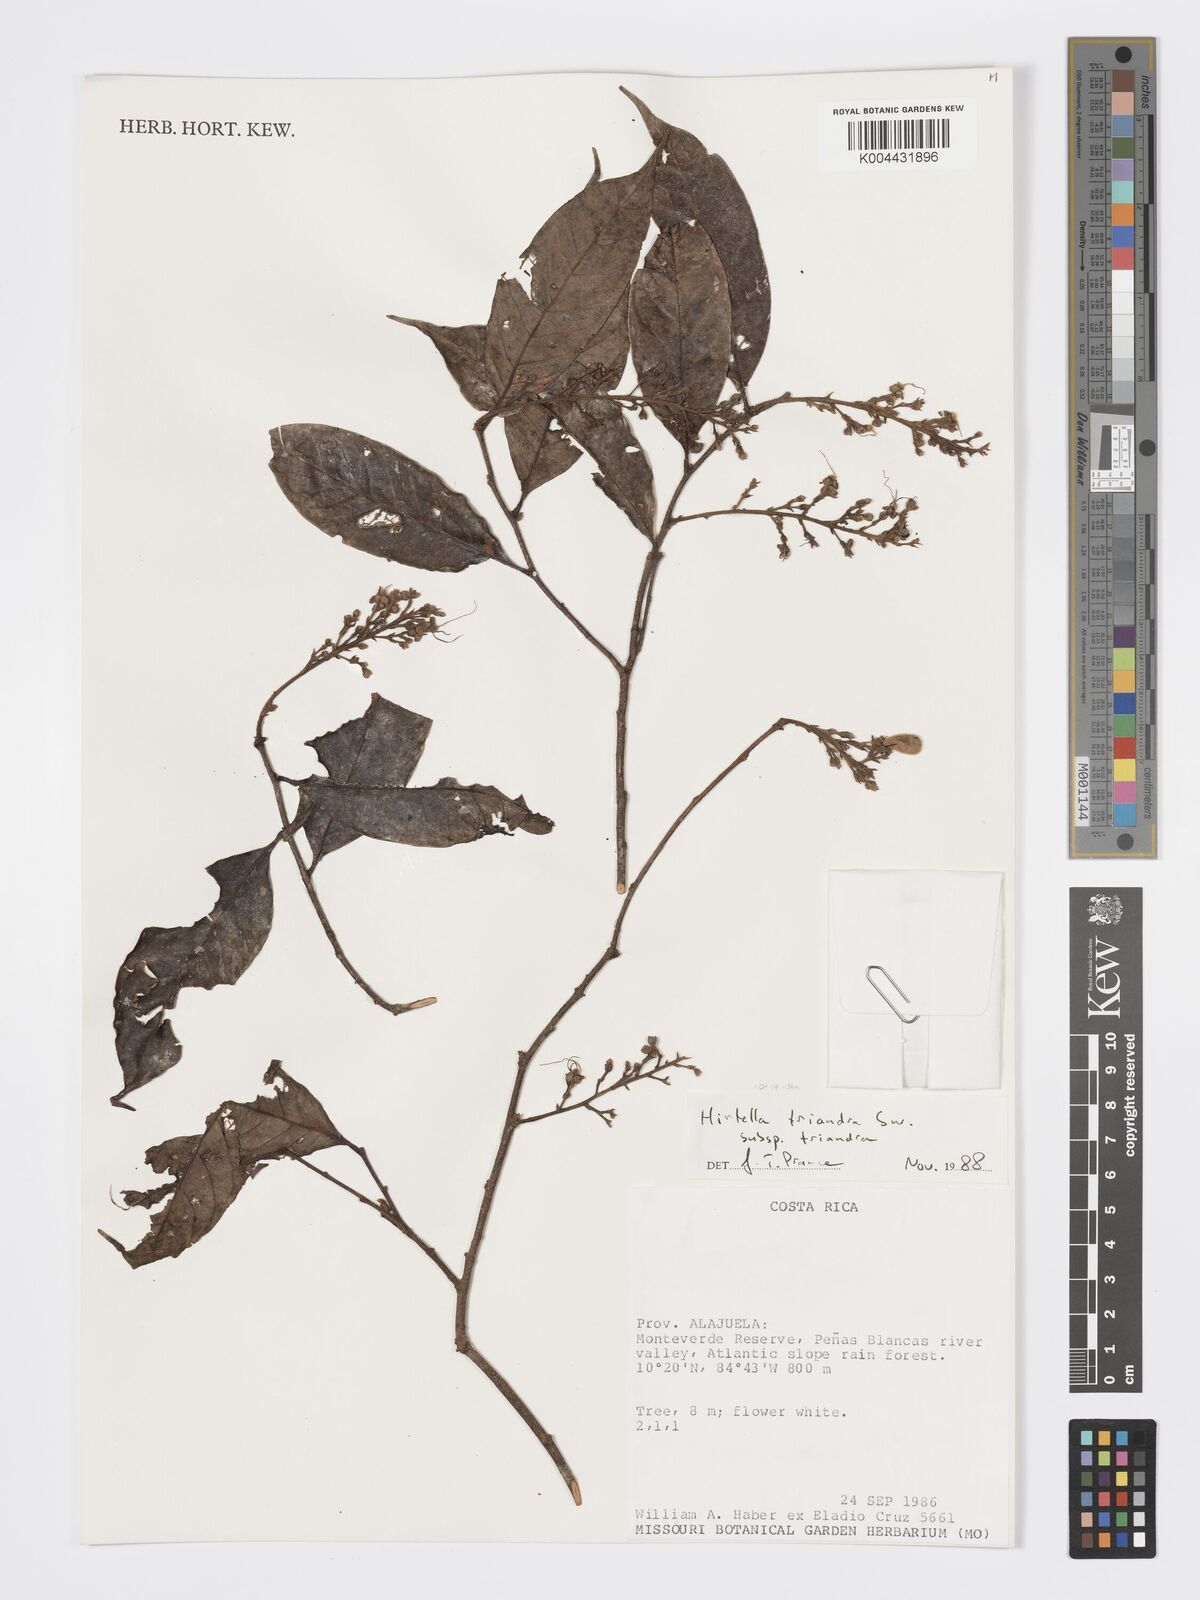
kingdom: Plantae
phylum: Tracheophyta
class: Magnoliopsida
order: Malpighiales
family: Chrysobalanaceae
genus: Hirtella
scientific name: Hirtella triandra
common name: Hairy plum
